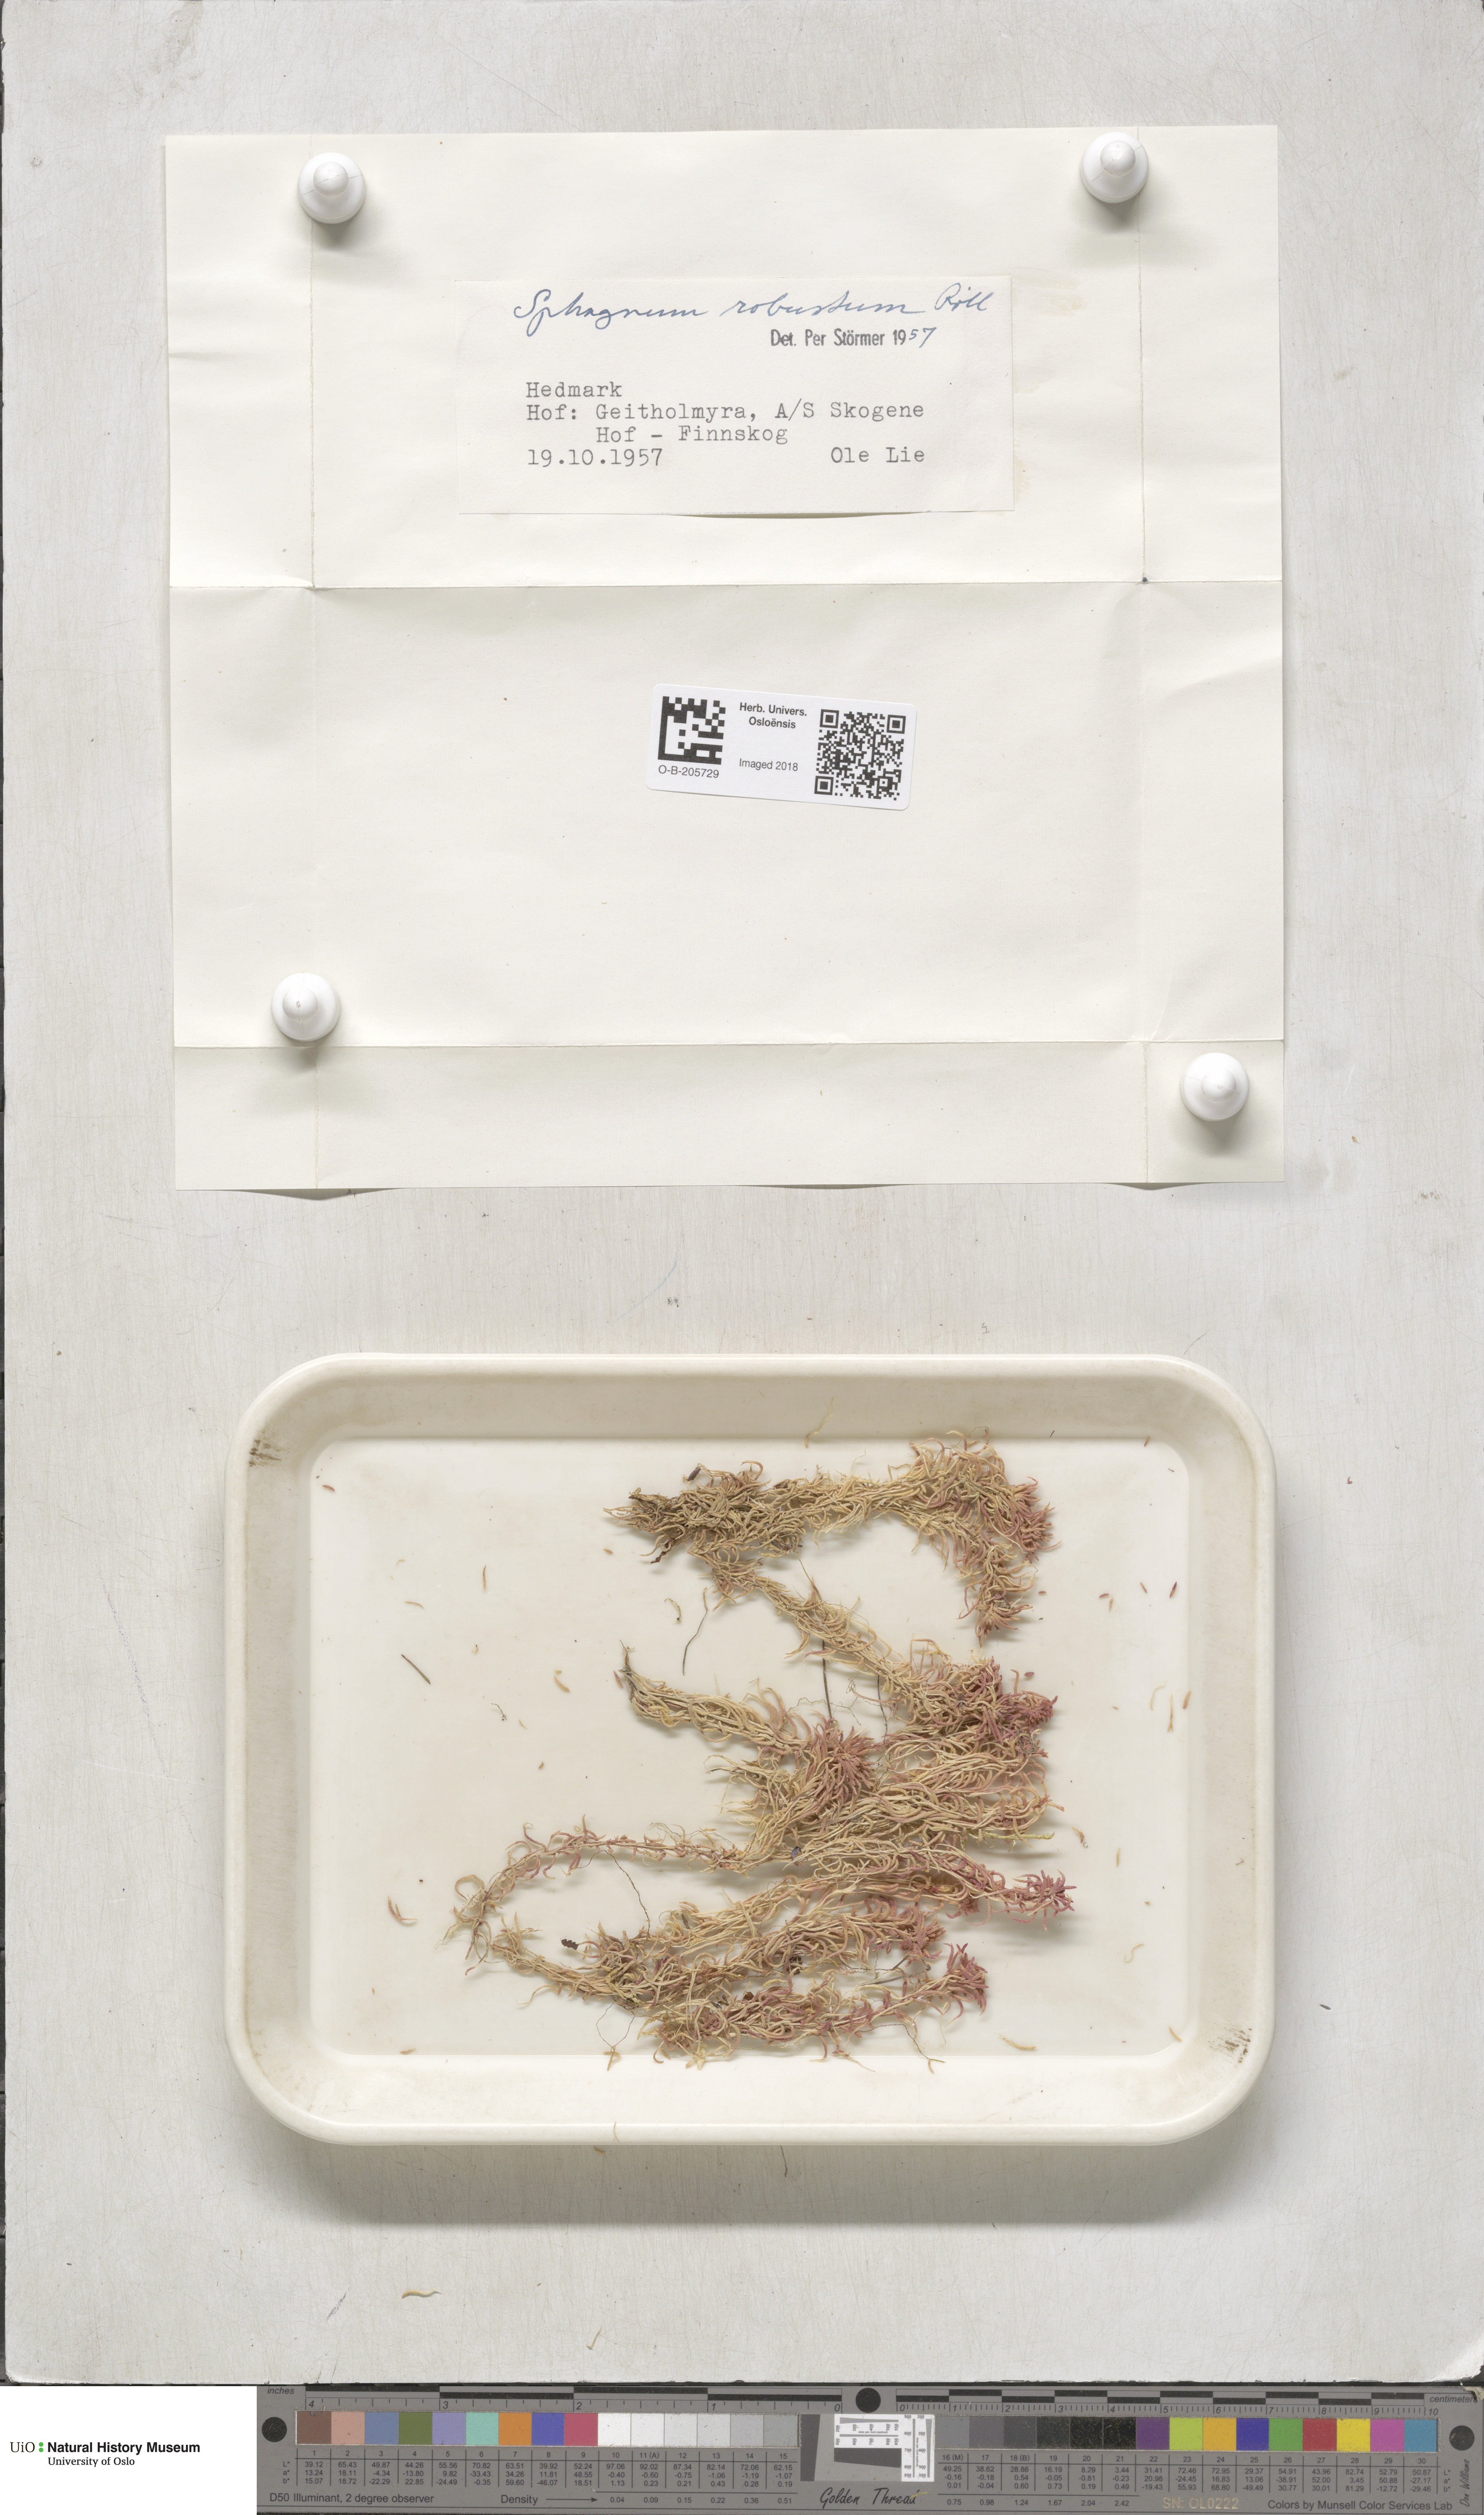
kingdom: Plantae
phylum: Bryophyta
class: Sphagnopsida
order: Sphagnales
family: Sphagnaceae
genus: Sphagnum
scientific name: Sphagnum russowii
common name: Russow's peat moss
